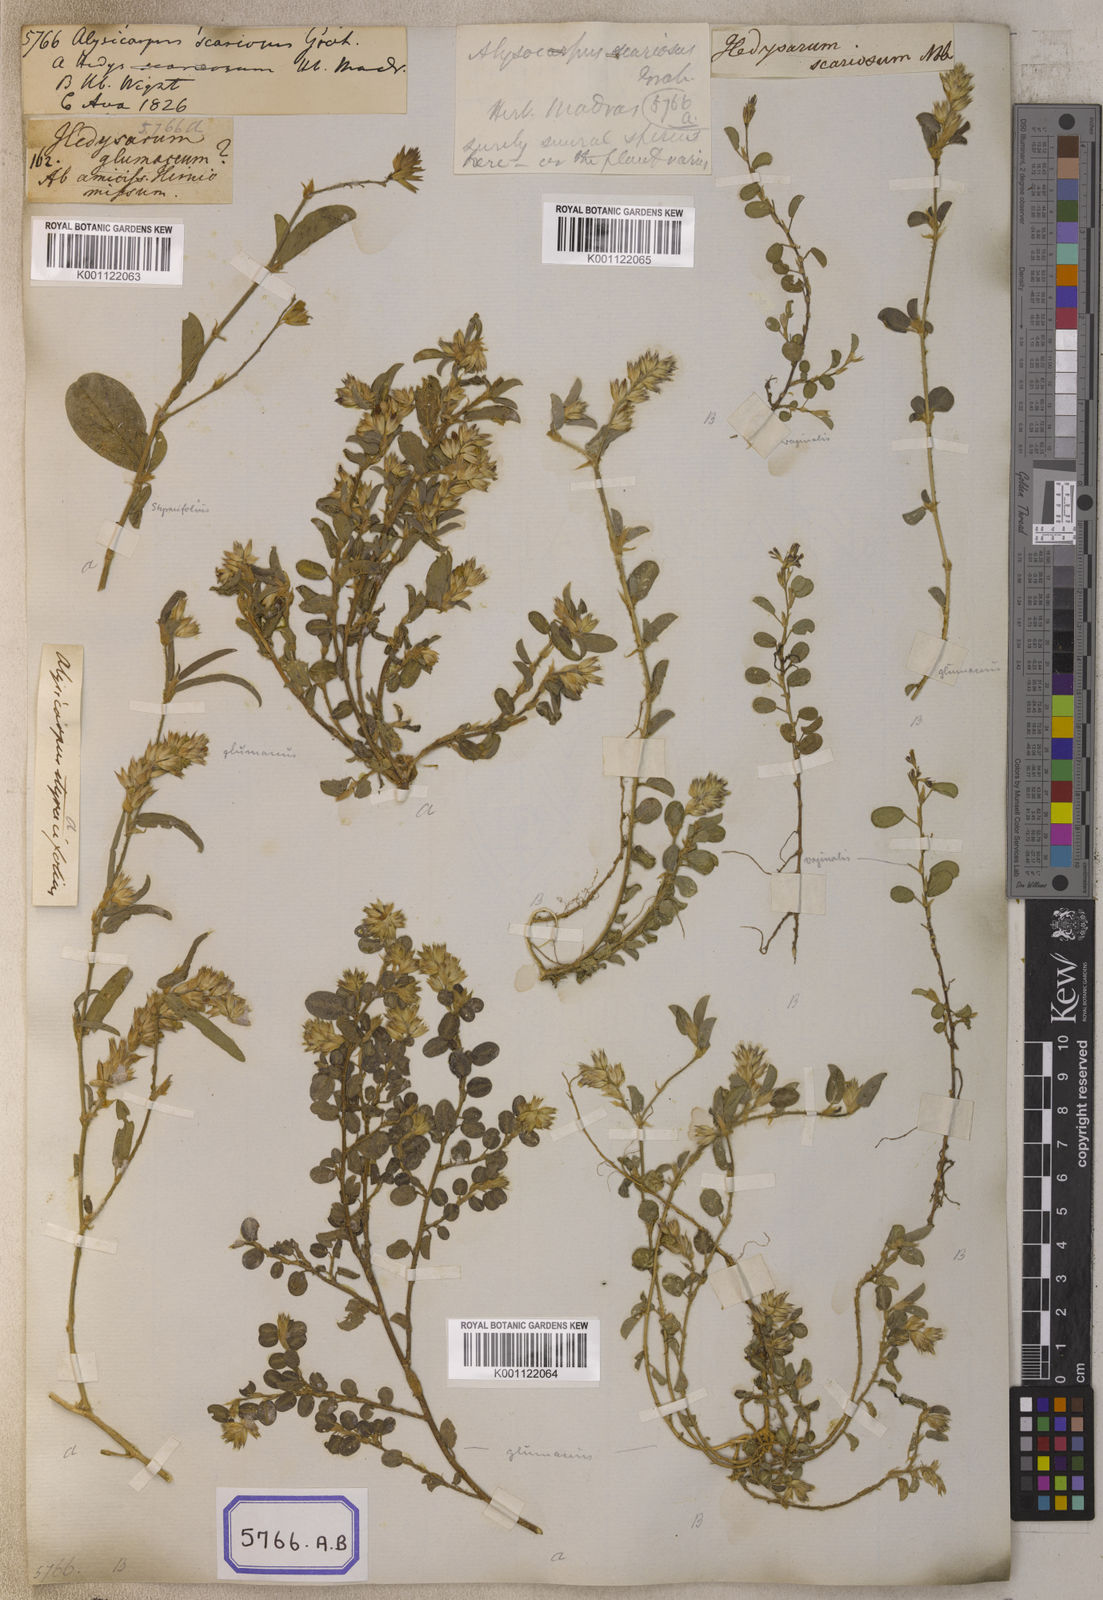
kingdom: Plantae
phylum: Tracheophyta
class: Magnoliopsida
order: Fabales
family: Fabaceae
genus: Alysicarpus
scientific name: Alysicarpus scariosus
